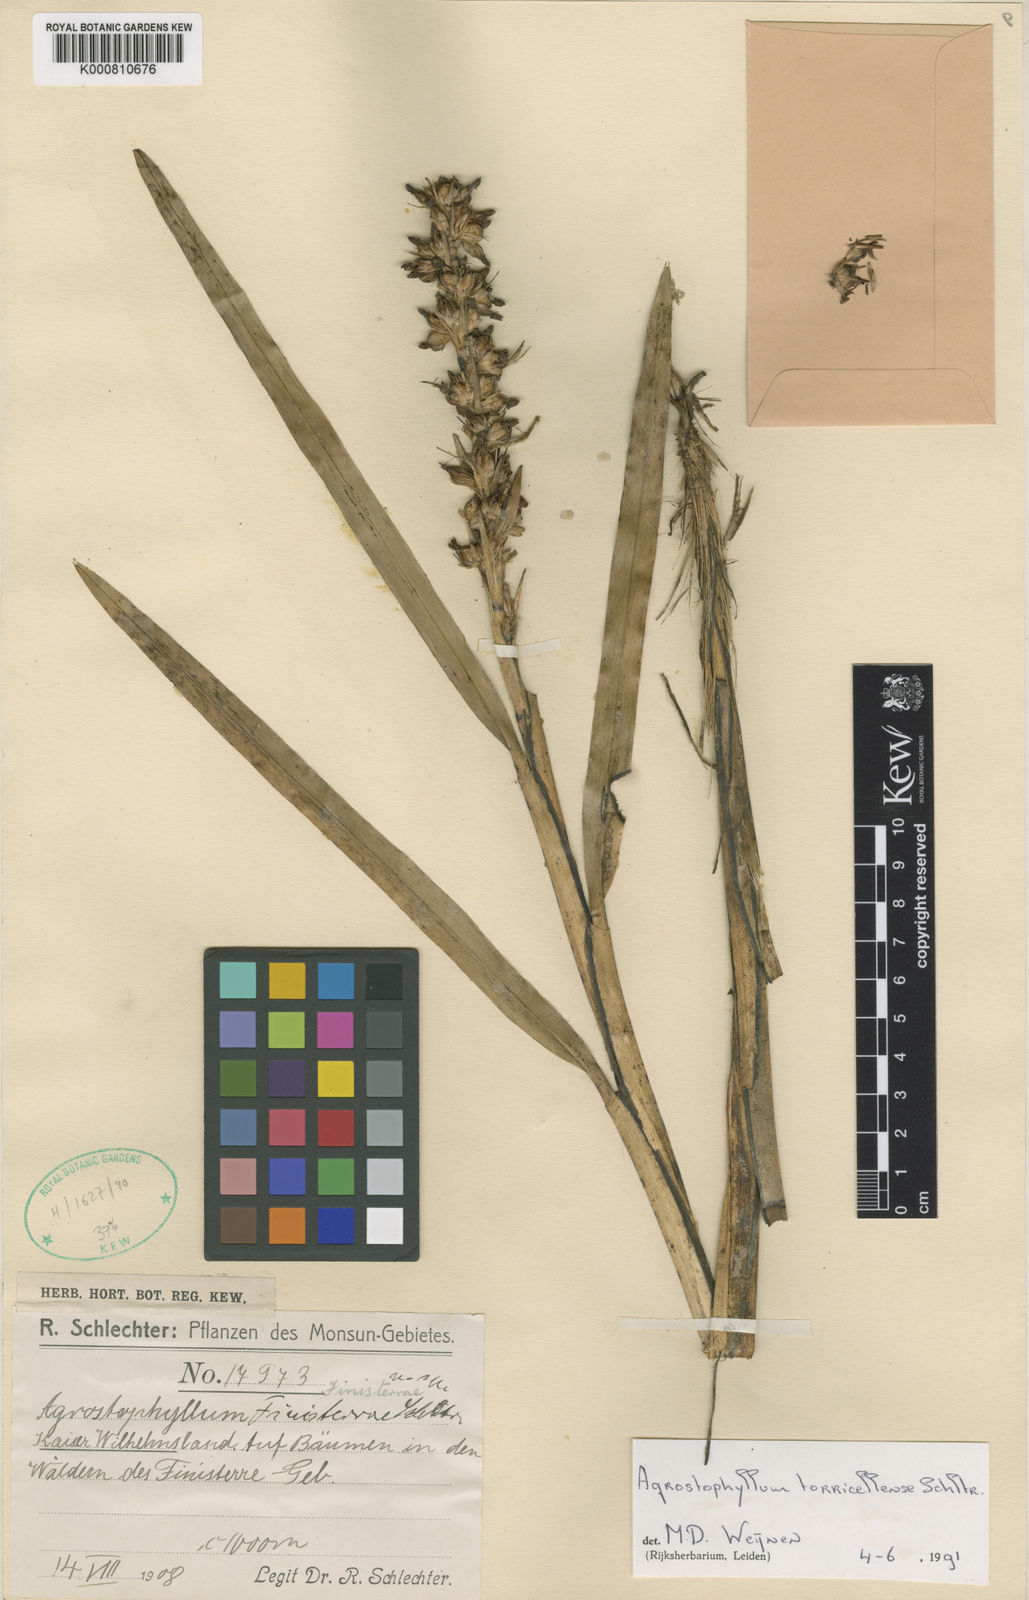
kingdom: Plantae
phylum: Tracheophyta
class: Liliopsida
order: Asparagales
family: Orchidaceae
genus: Agrostophyllum
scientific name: Agrostophyllum torricellense
